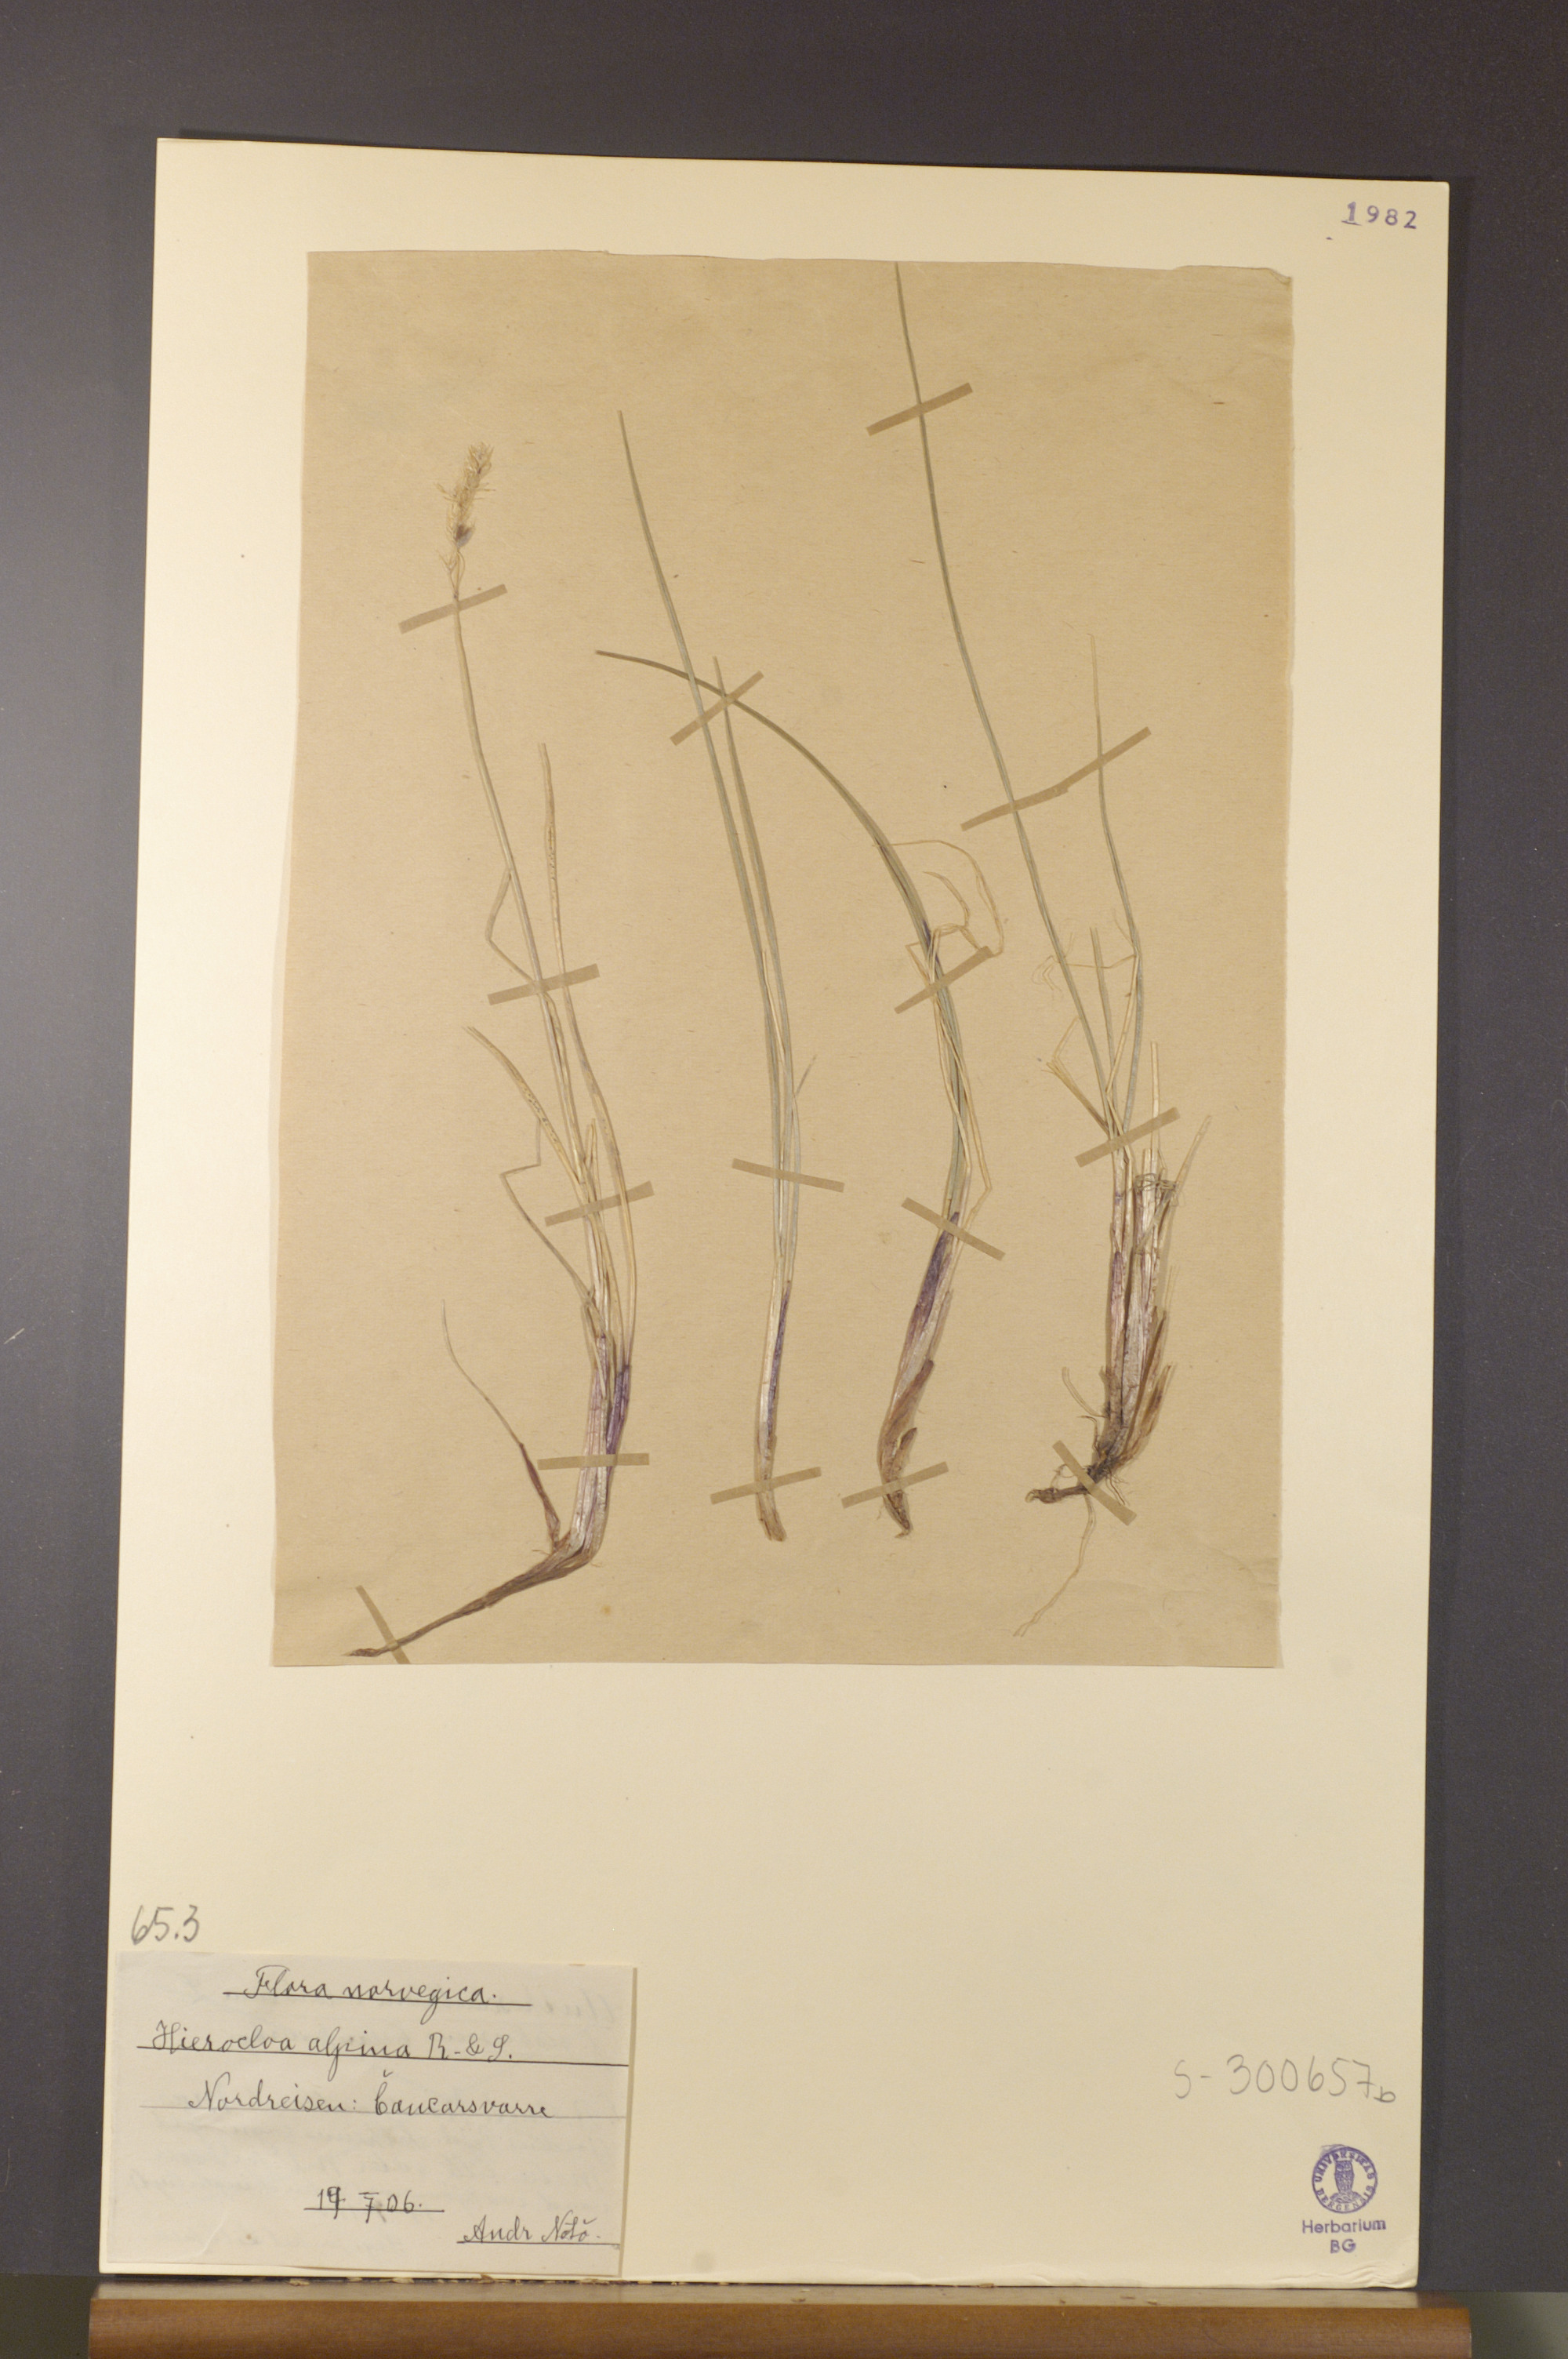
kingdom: Plantae
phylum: Tracheophyta
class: Liliopsida
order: Poales
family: Poaceae
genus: Anthoxanthum
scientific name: Anthoxanthum monticola
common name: Alpine sweetgrass
